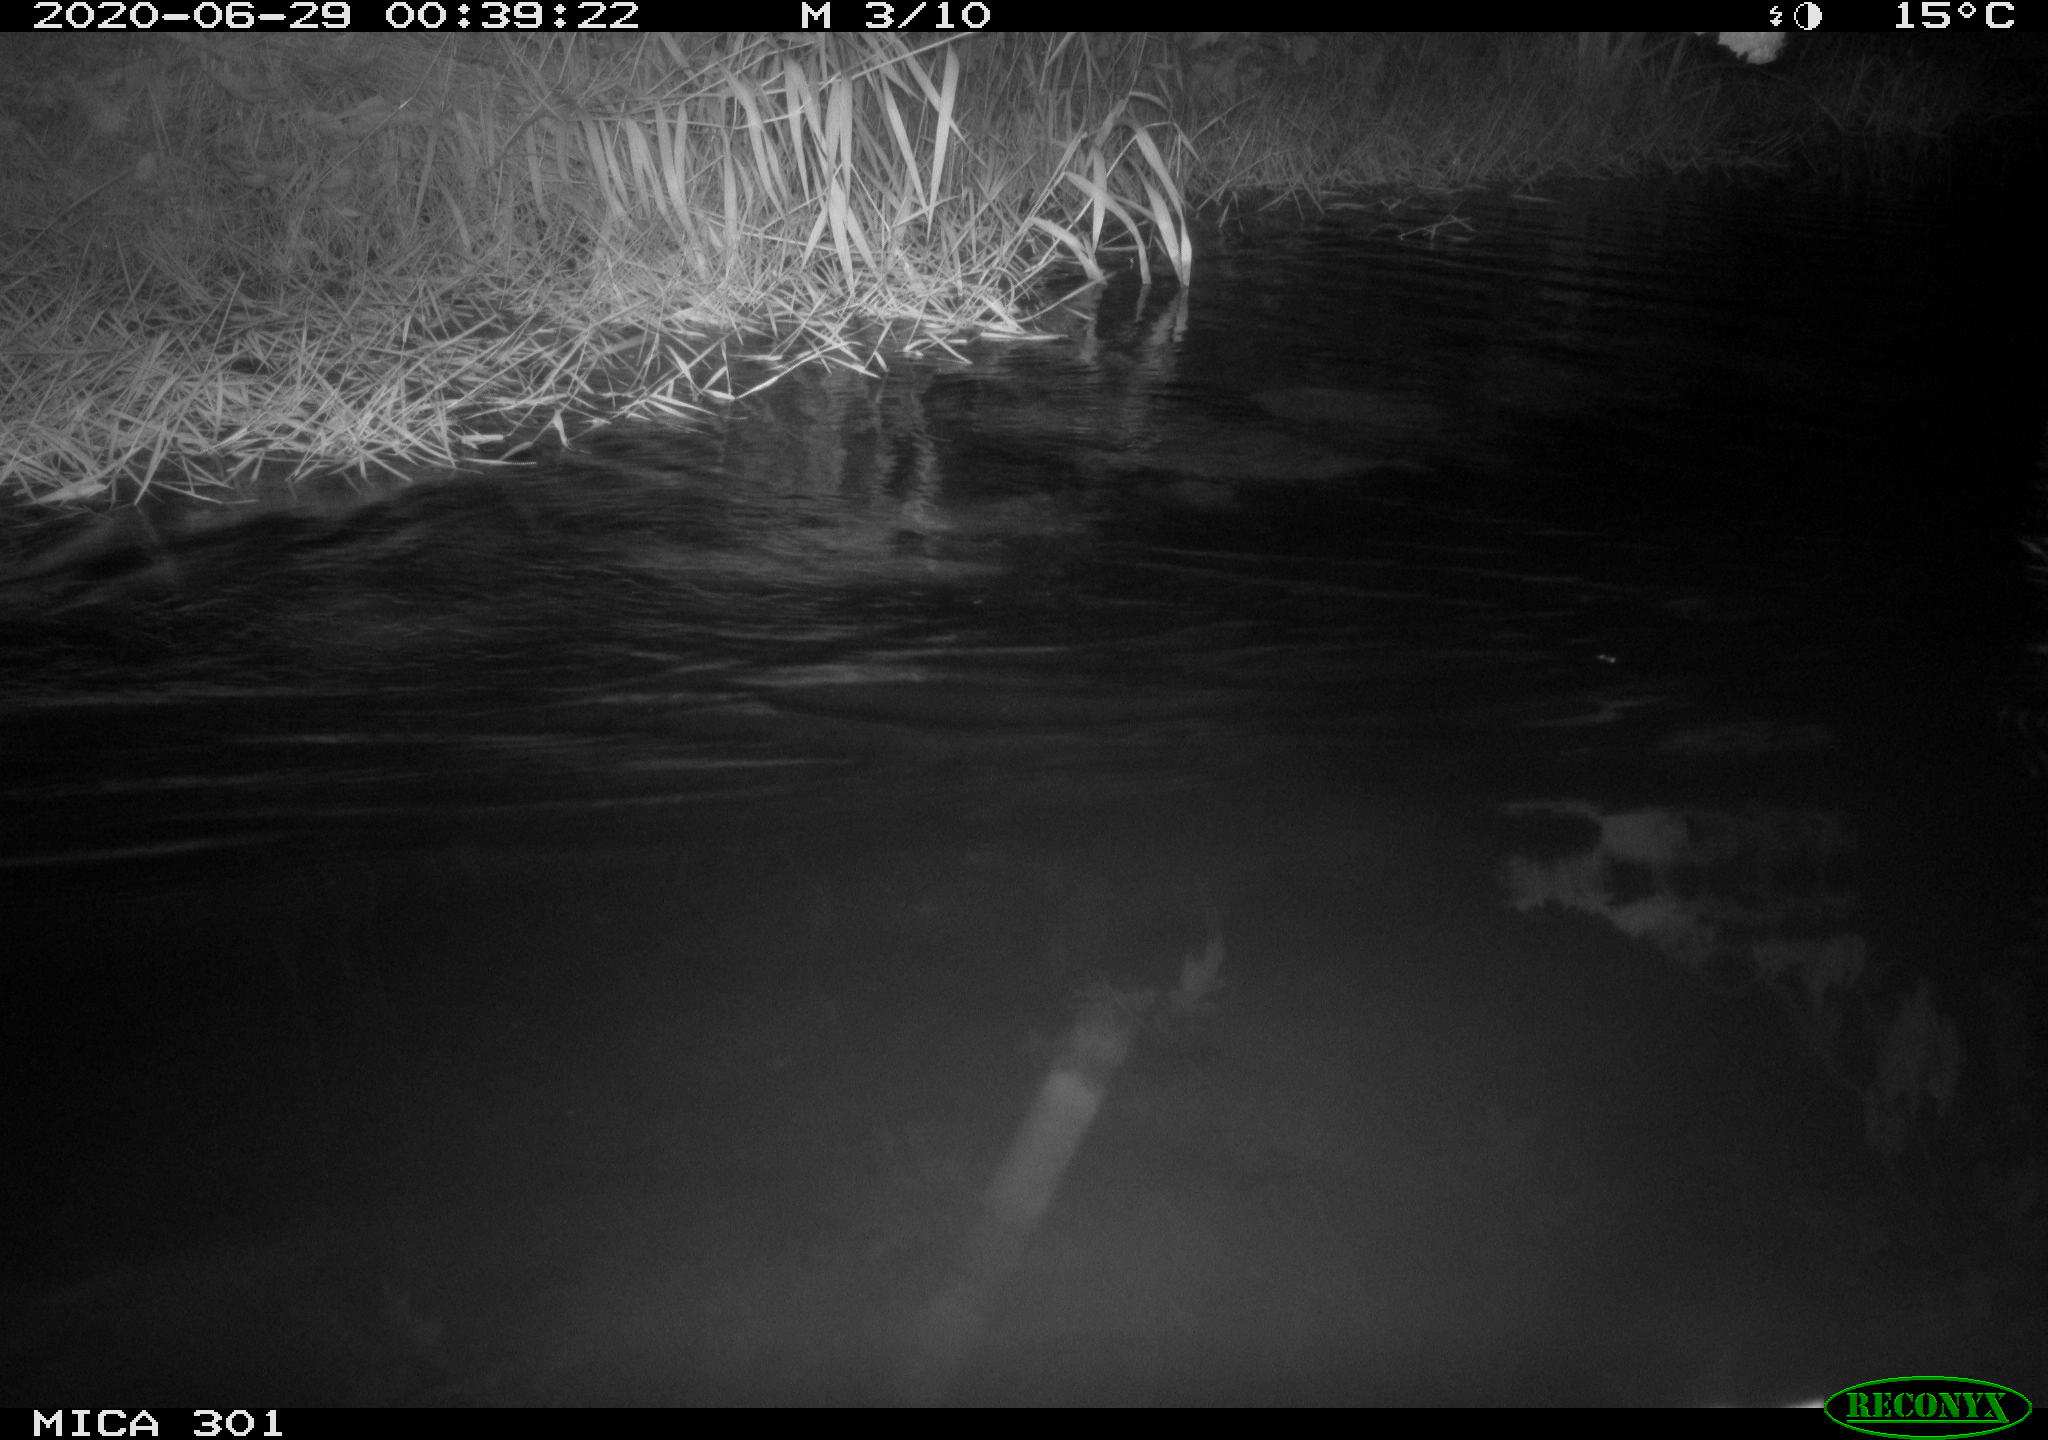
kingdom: Animalia
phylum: Chordata
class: Mammalia
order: Rodentia
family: Castoridae
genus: Castor
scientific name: Castor fiber
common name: Eurasian beaver
